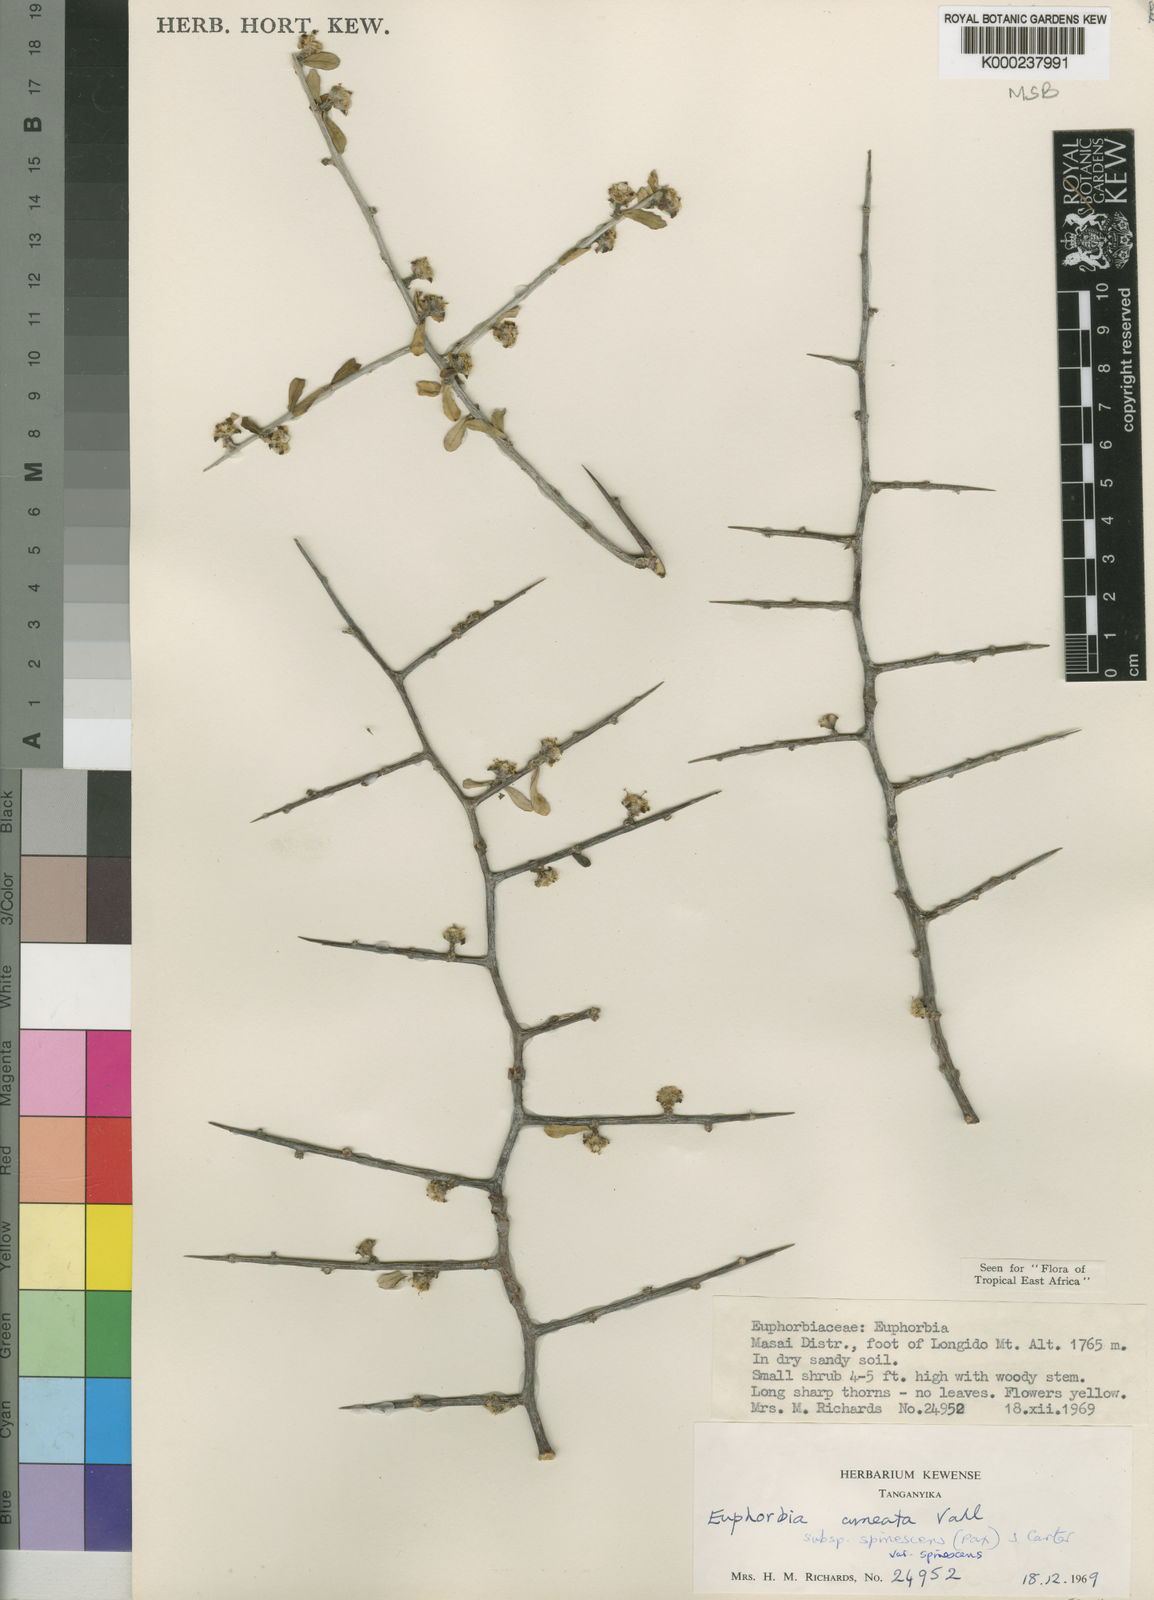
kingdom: Plantae
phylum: Tracheophyta
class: Magnoliopsida
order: Malpighiales
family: Euphorbiaceae
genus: Euphorbia
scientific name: Euphorbia cuneata
